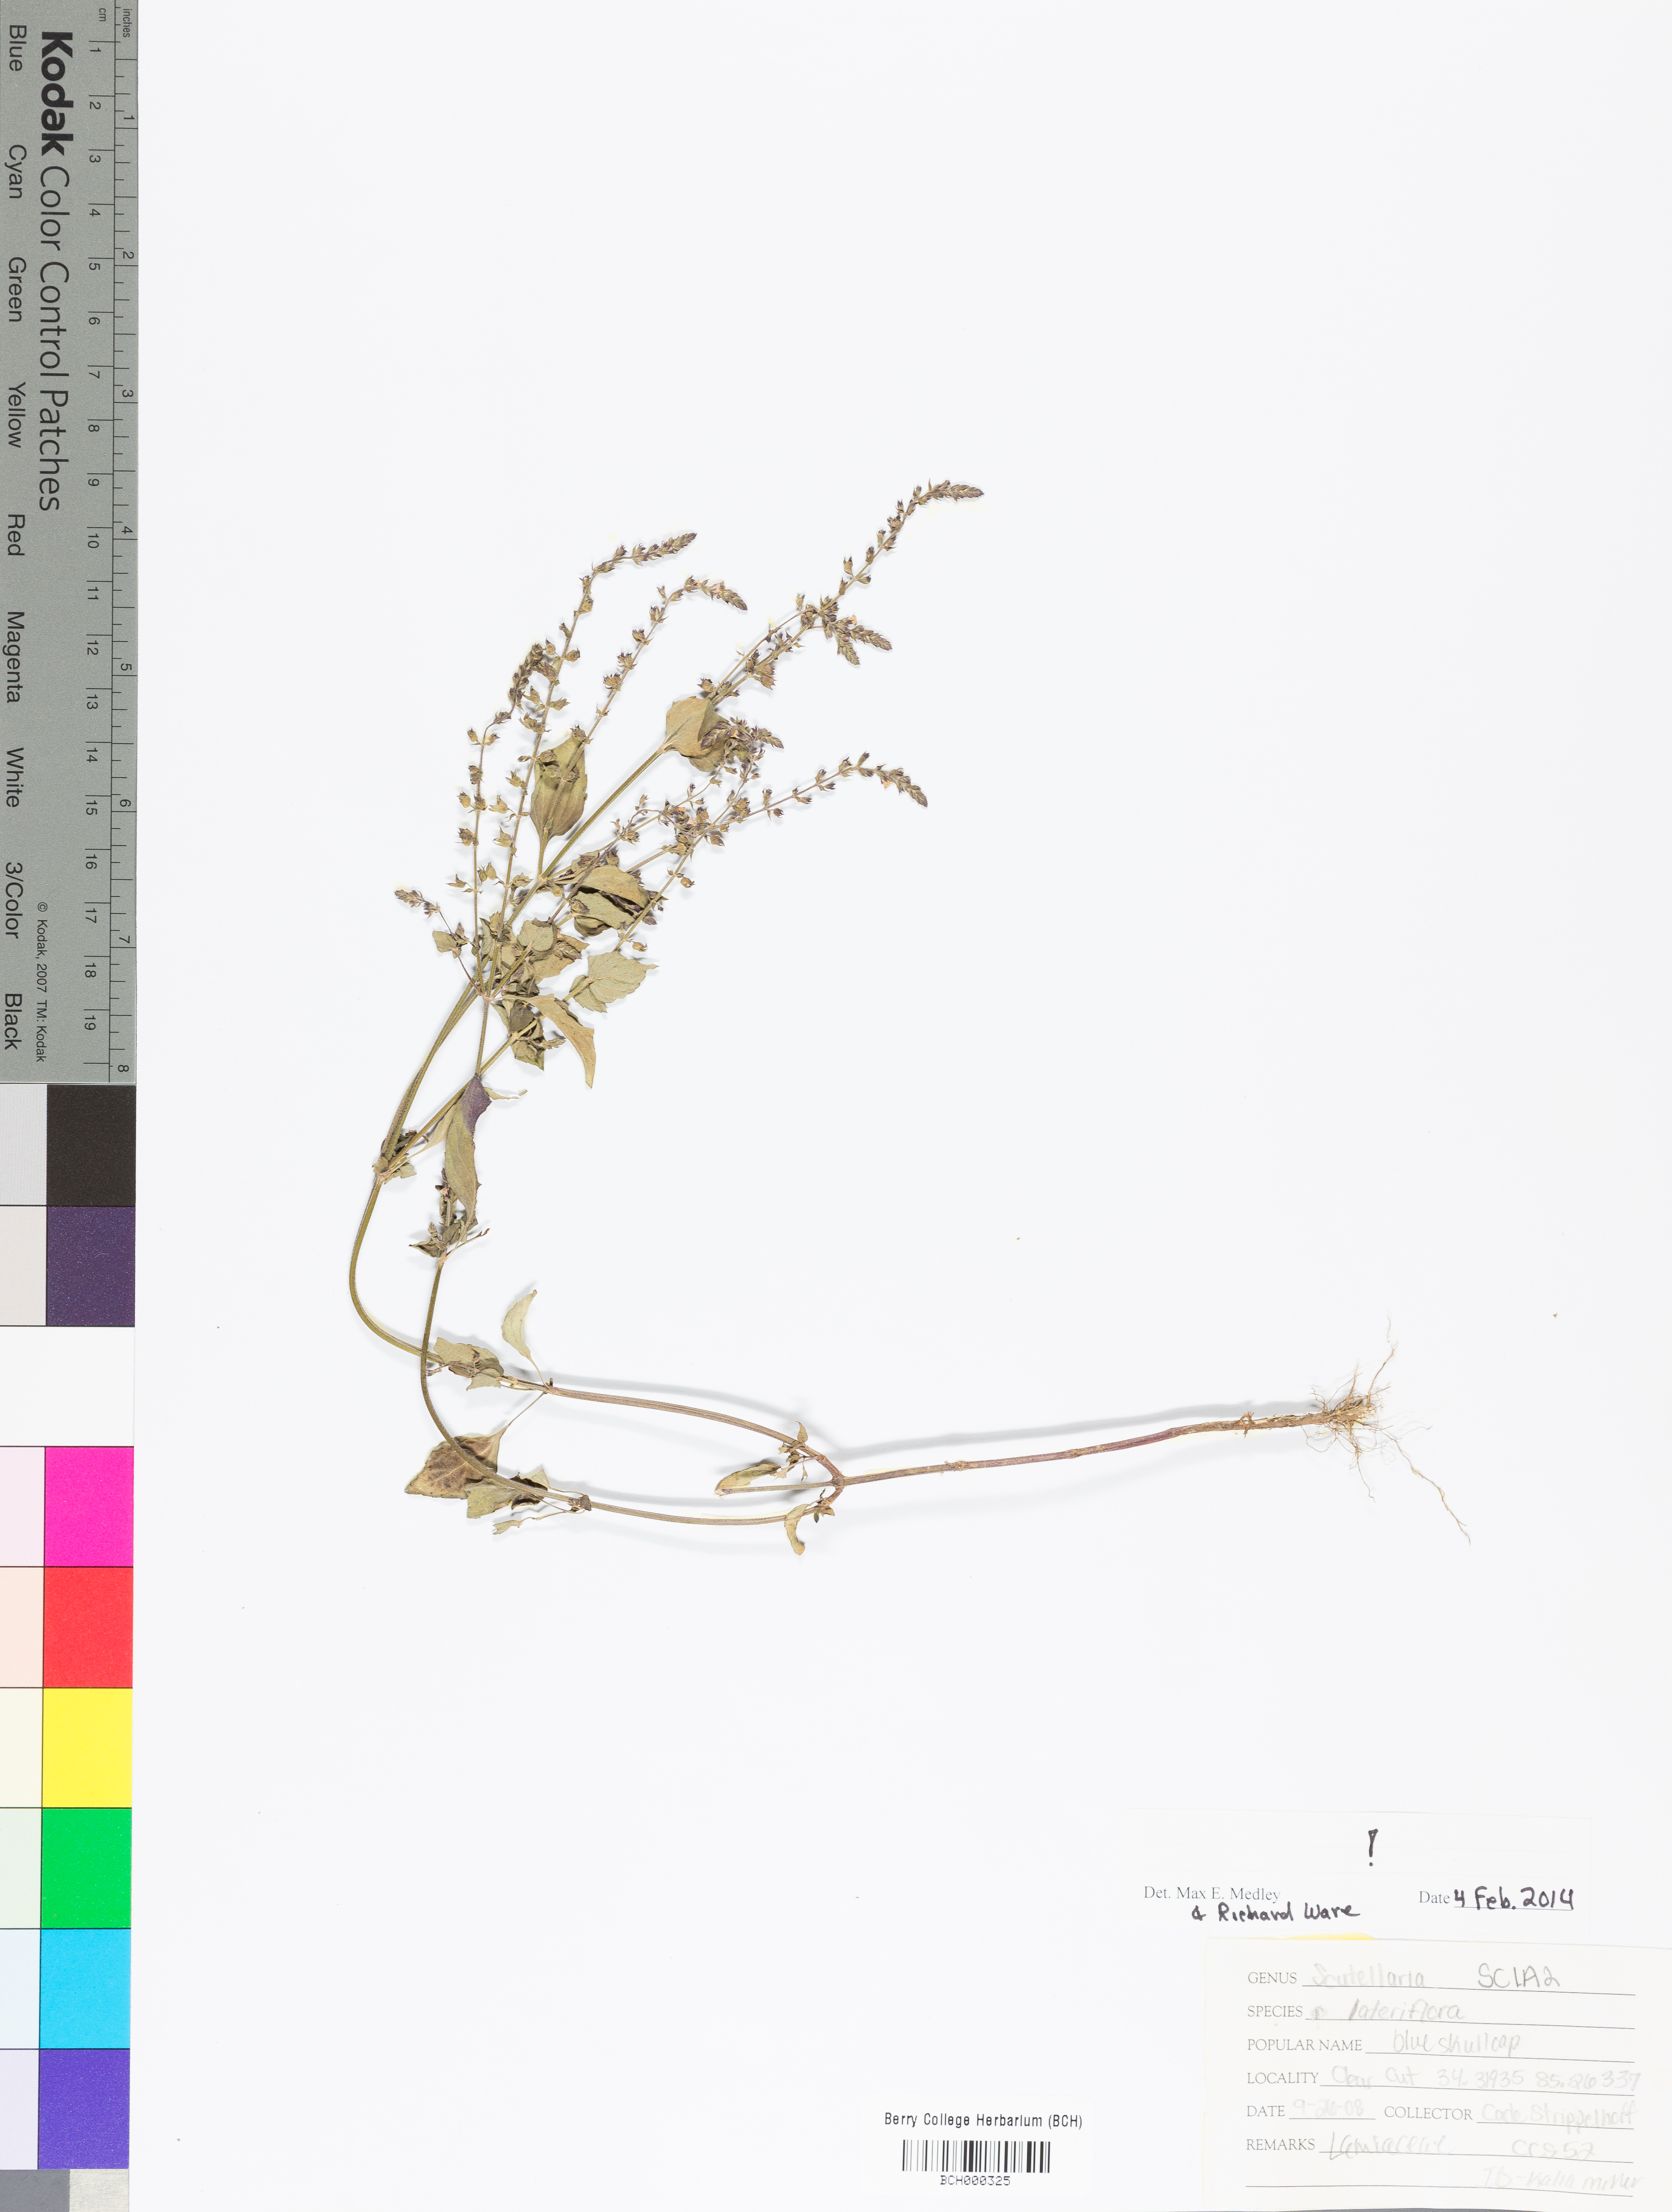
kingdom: Plantae
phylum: Tracheophyta
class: Magnoliopsida
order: Lamiales
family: Lamiaceae
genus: Scutellaria
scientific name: Scutellaria lateriflora
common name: Blue skullcap
